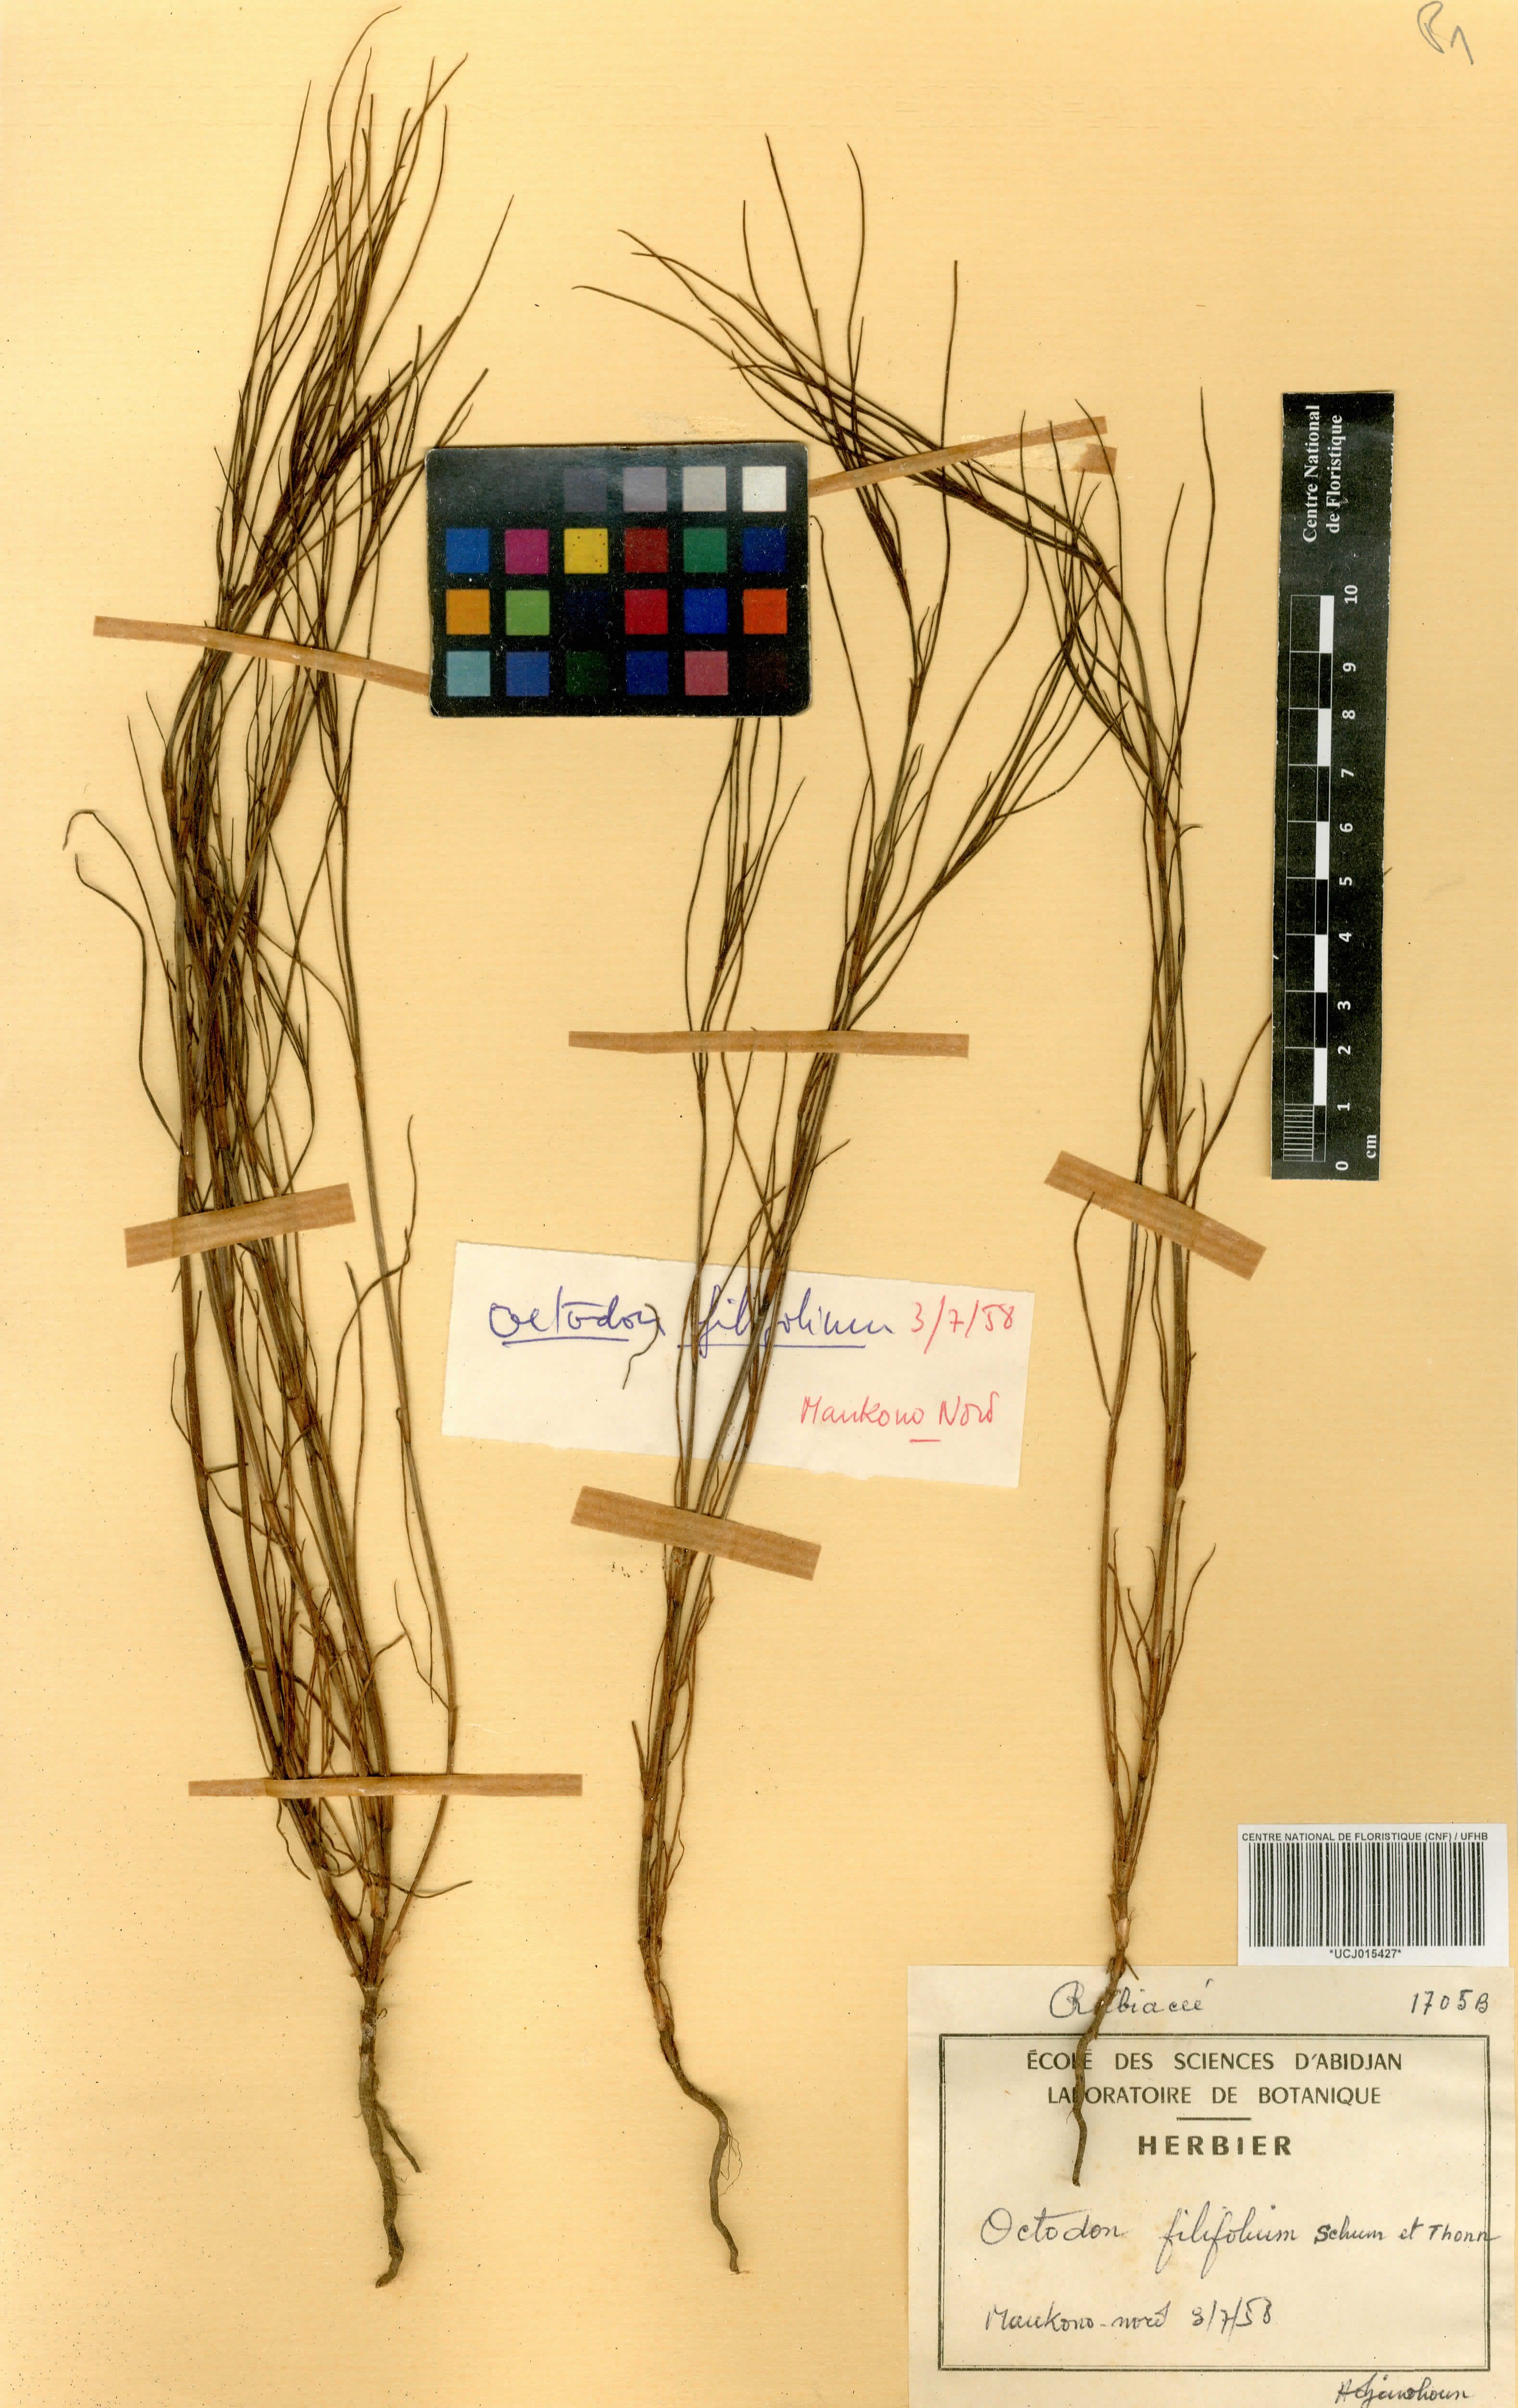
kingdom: Plantae
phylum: Tracheophyta
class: Magnoliopsida
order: Gentianales
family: Rubiaceae
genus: Spermacoce
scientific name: Spermacoce filifolia
